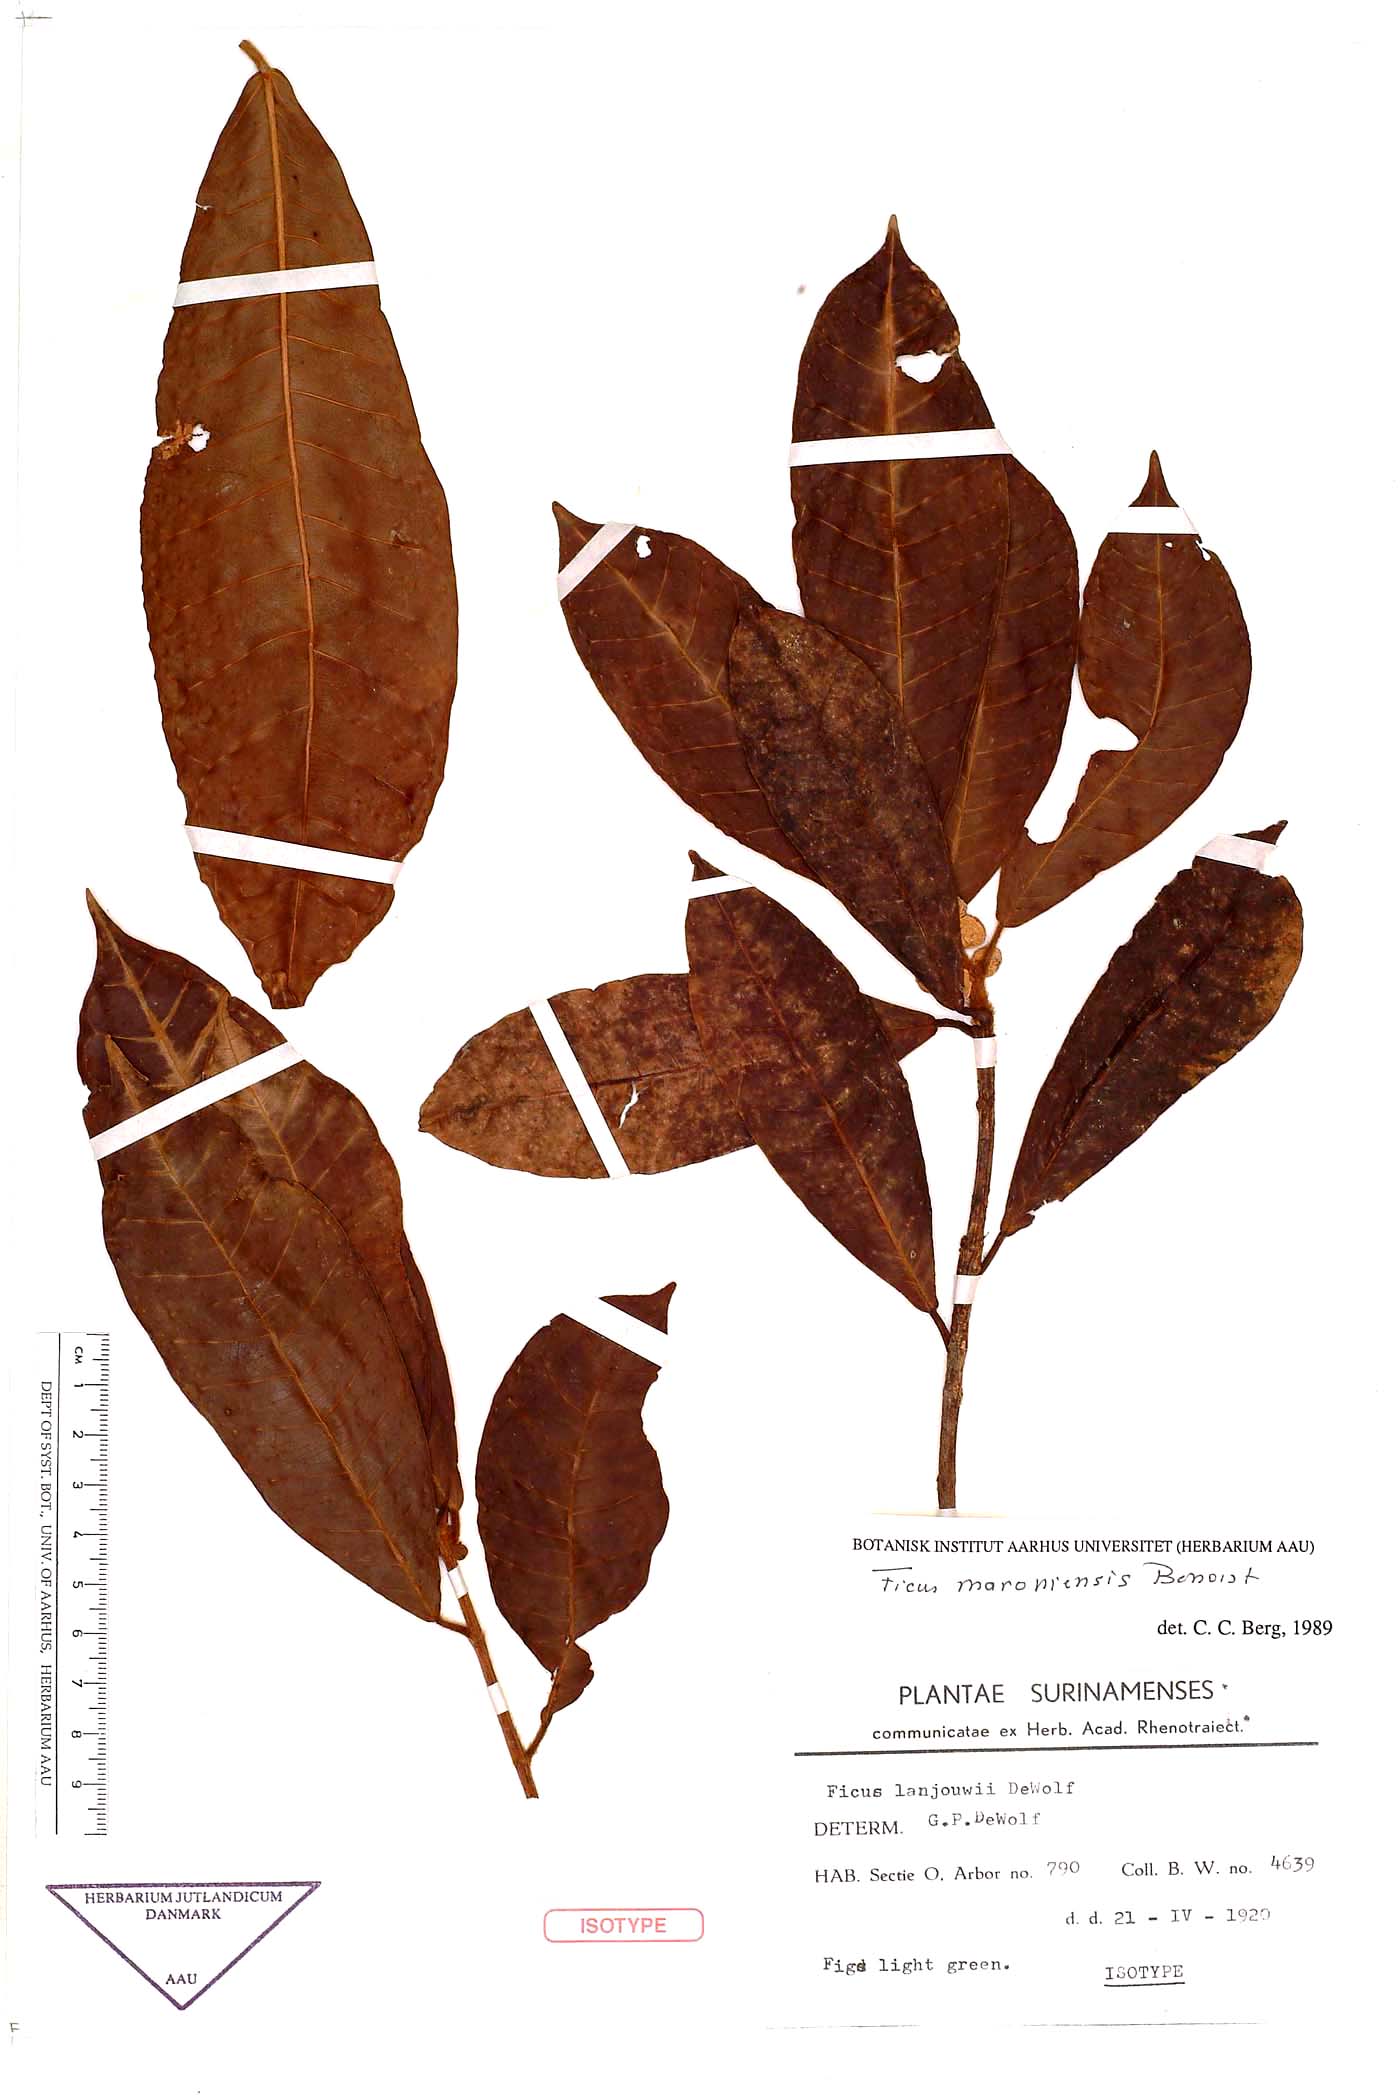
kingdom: Plantae
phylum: Tracheophyta
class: Magnoliopsida
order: Rosales
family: Moraceae
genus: Ficus
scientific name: Ficus maroniensis
